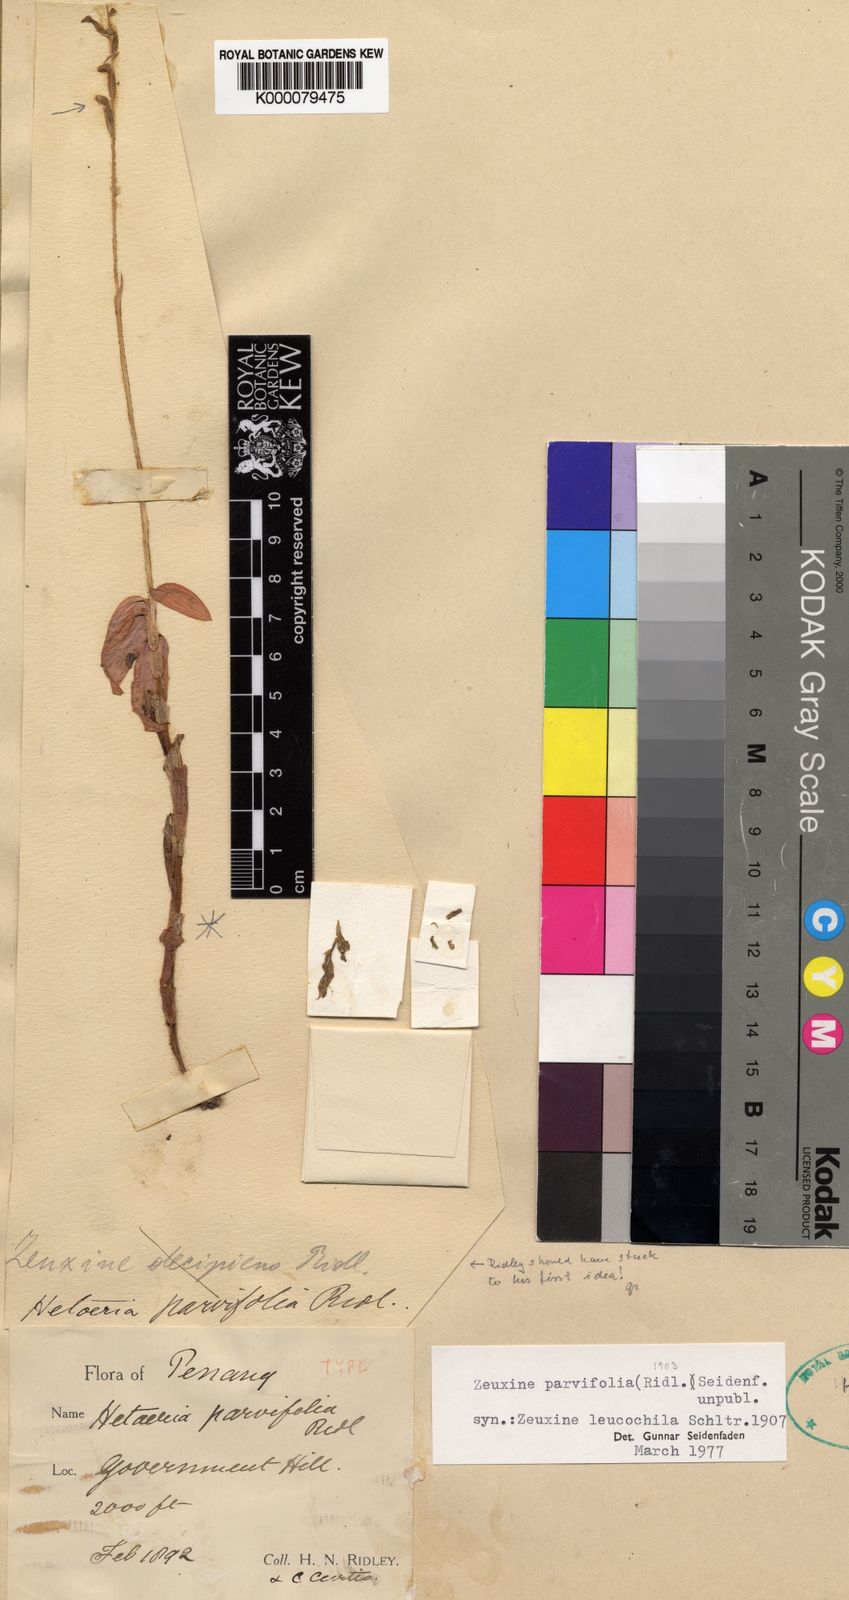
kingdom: Plantae
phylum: Tracheophyta
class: Liliopsida
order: Asparagales
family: Orchidaceae
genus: Zeuxine
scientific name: Zeuxine parvifolia
